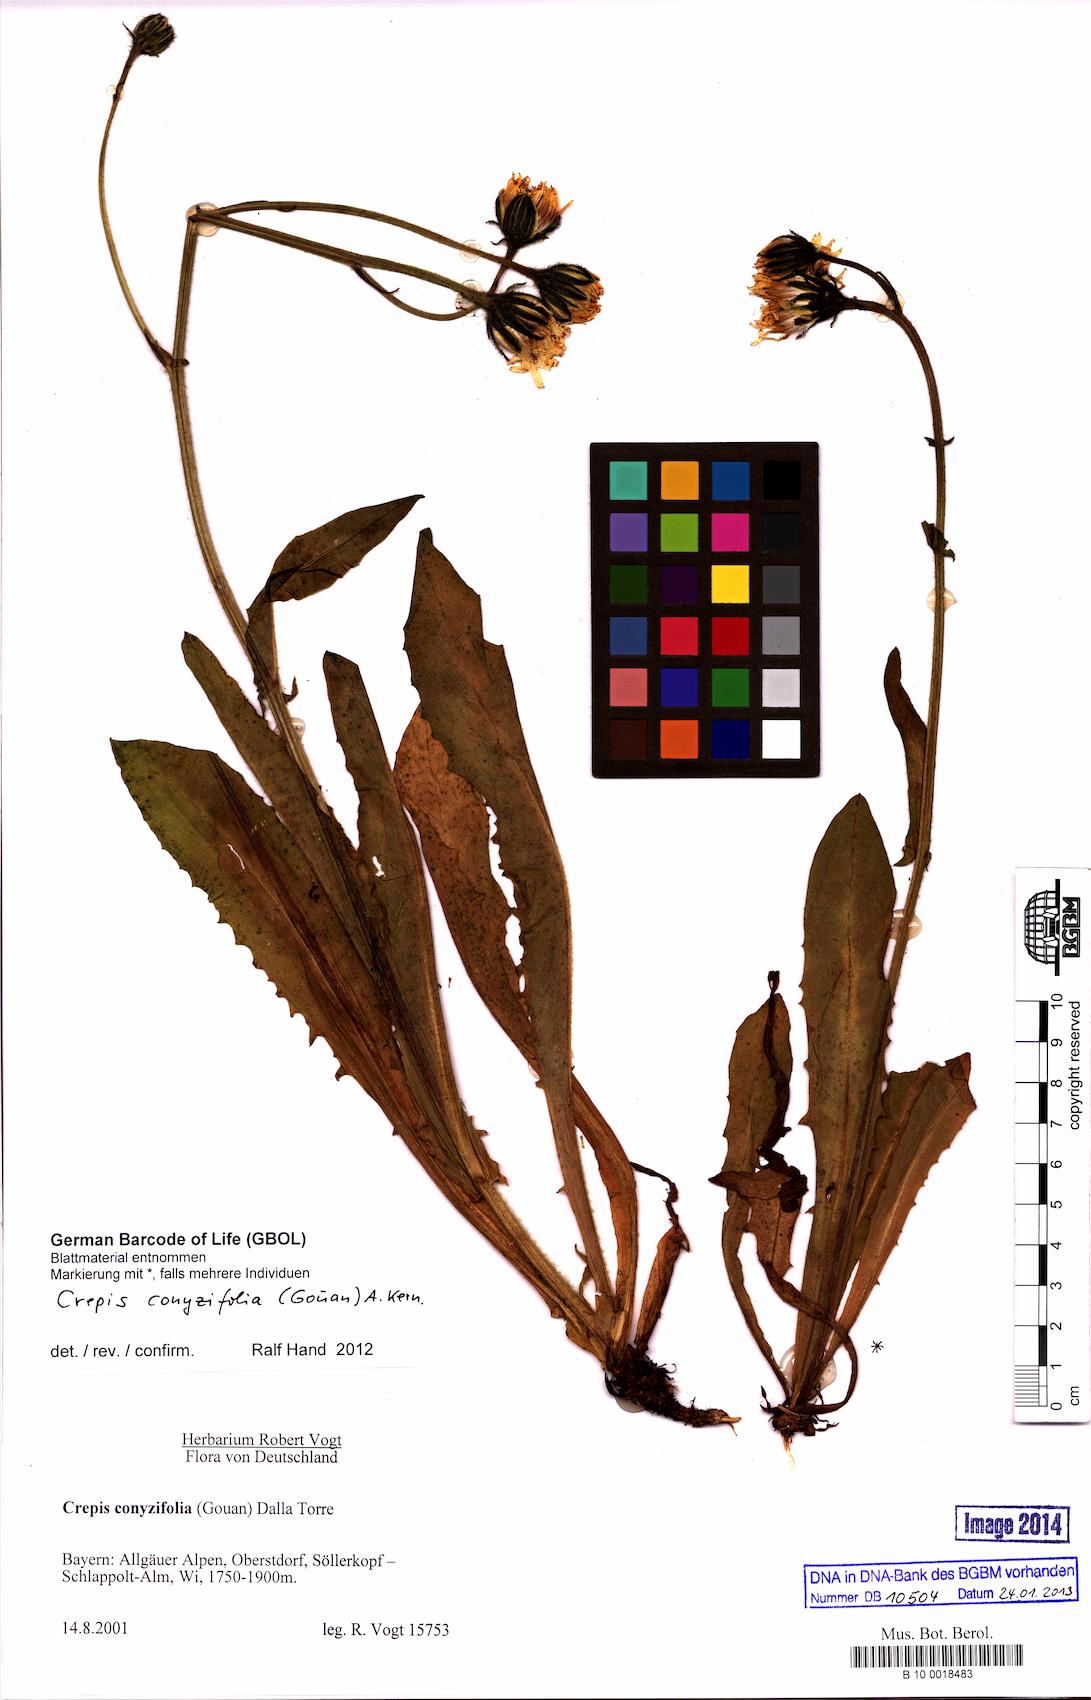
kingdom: Plantae
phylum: Tracheophyta
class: Magnoliopsida
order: Asterales
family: Asteraceae
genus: Crepis
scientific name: Crepis blattarioides
